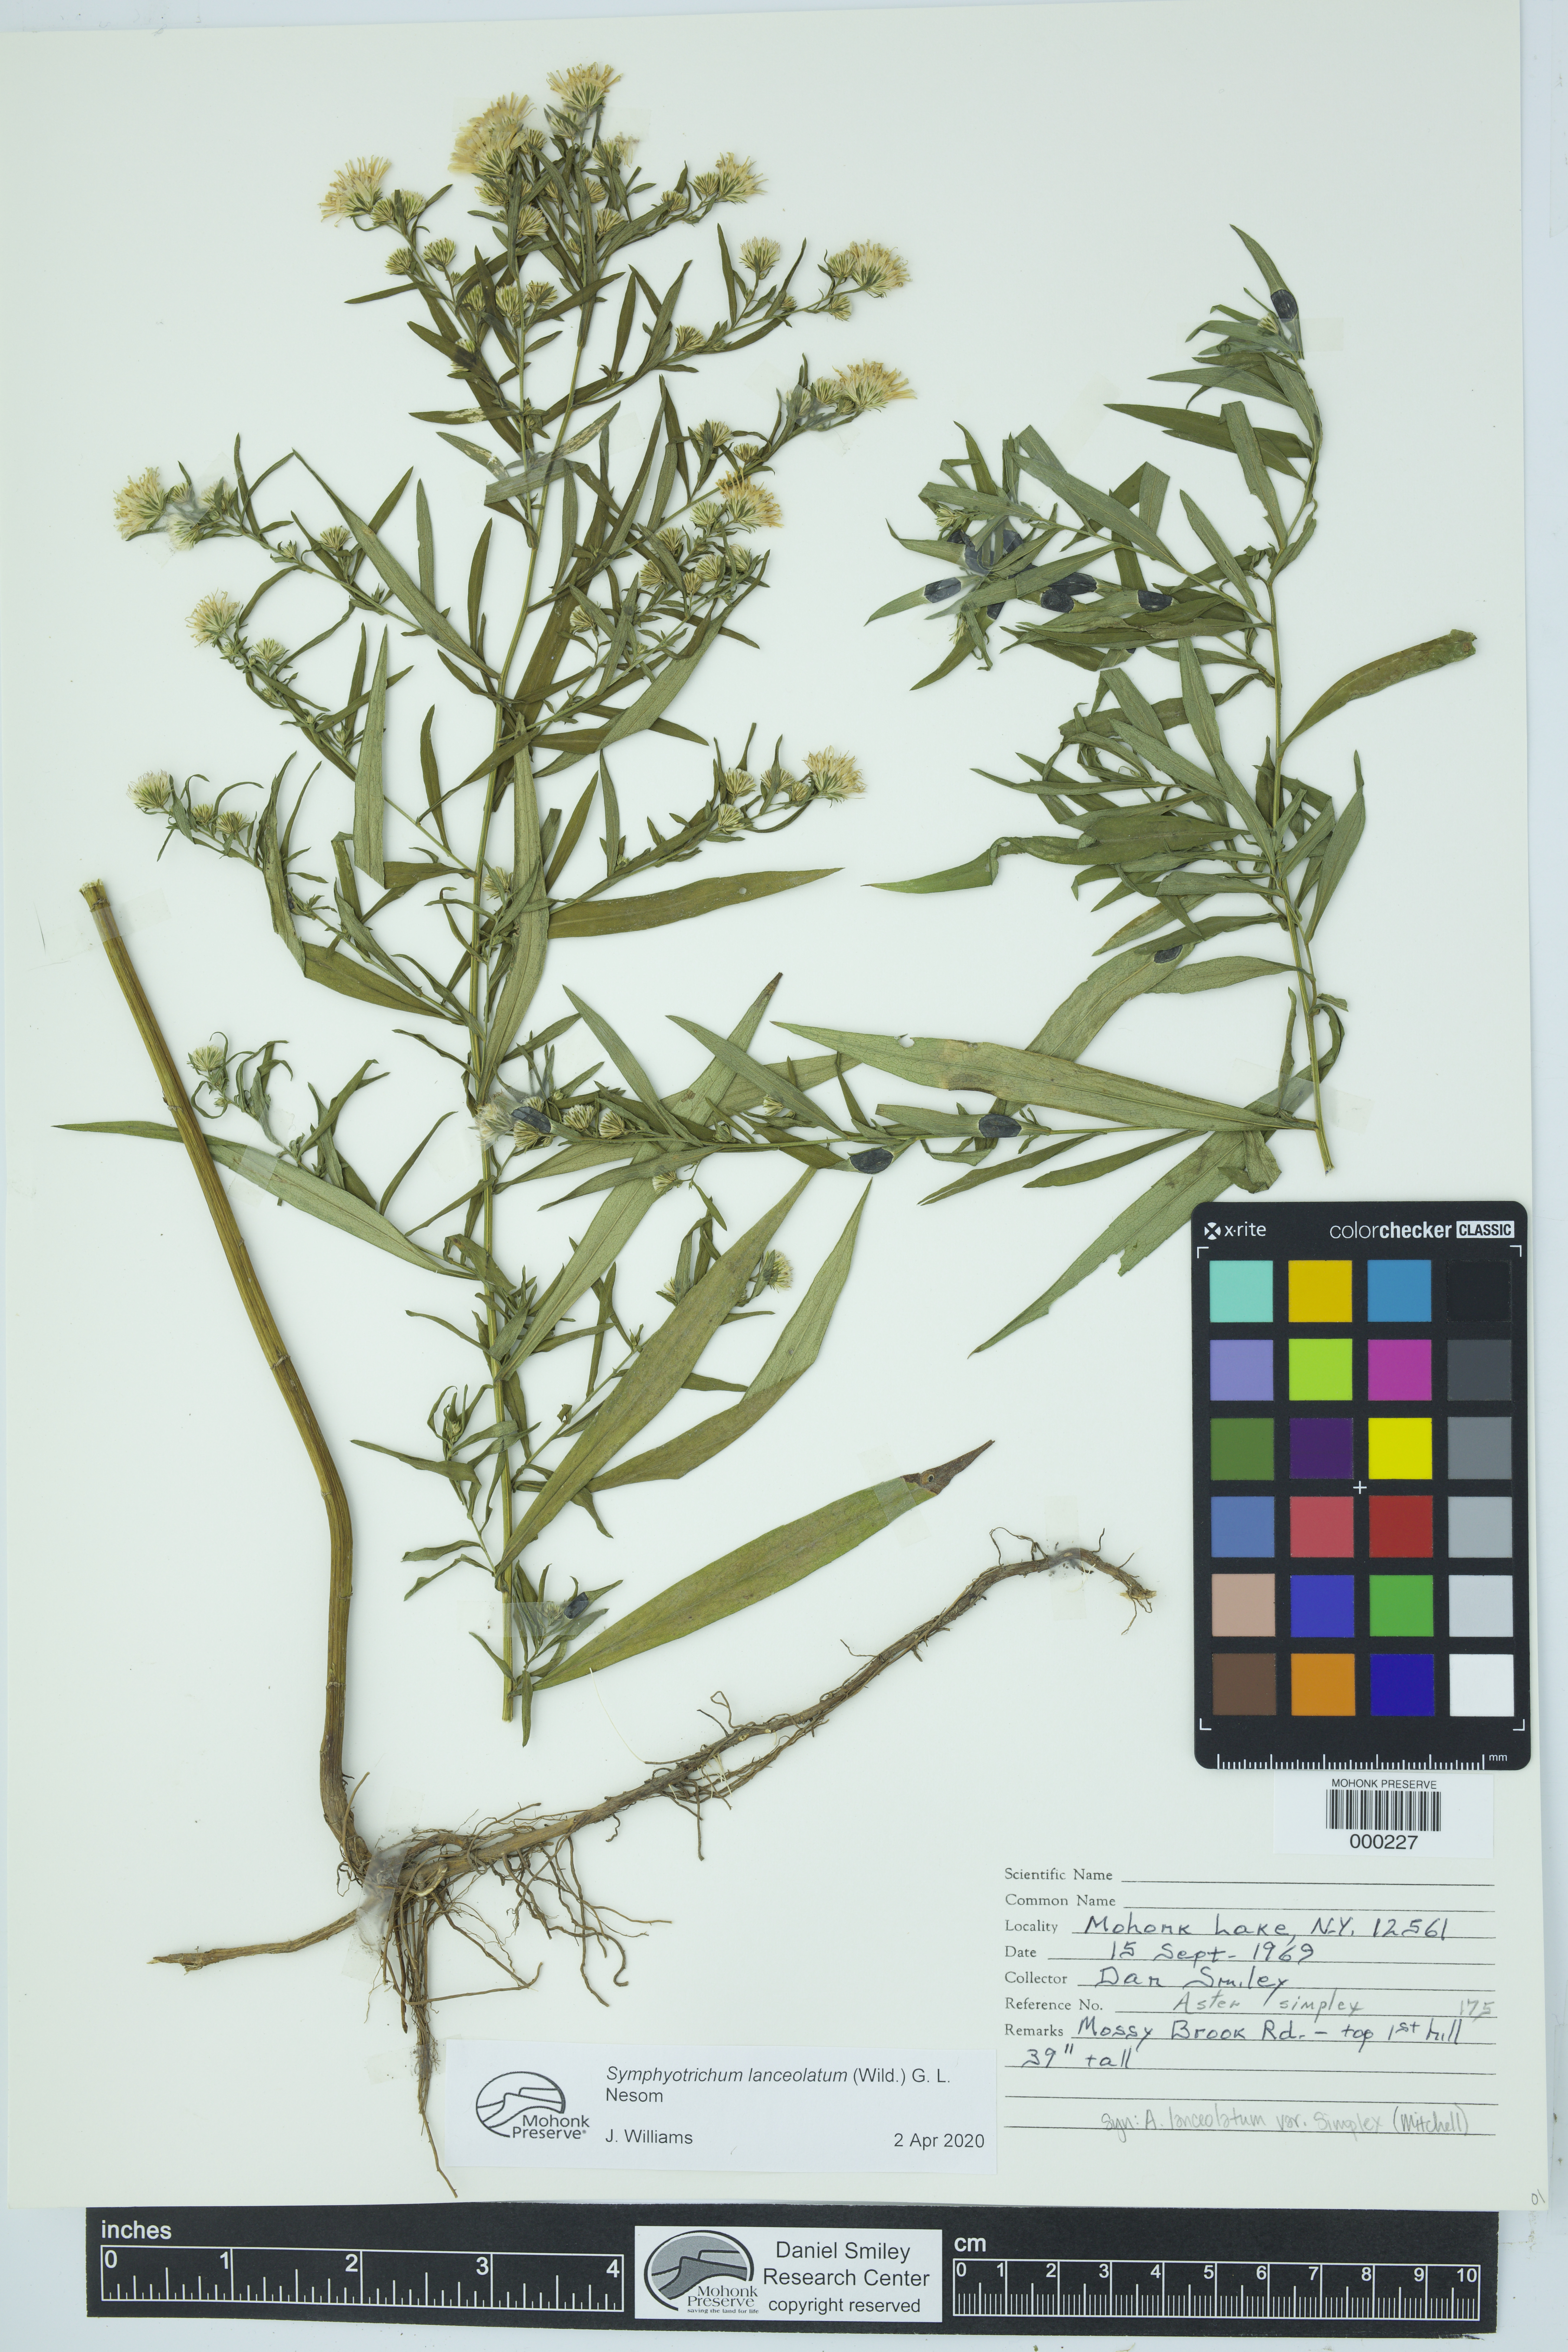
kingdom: Plantae
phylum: Tracheophyta
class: Magnoliopsida
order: Asterales
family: Asteraceae
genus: Symphyotrichum
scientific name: Symphyotrichum lanceolatum
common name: Panicled aster
